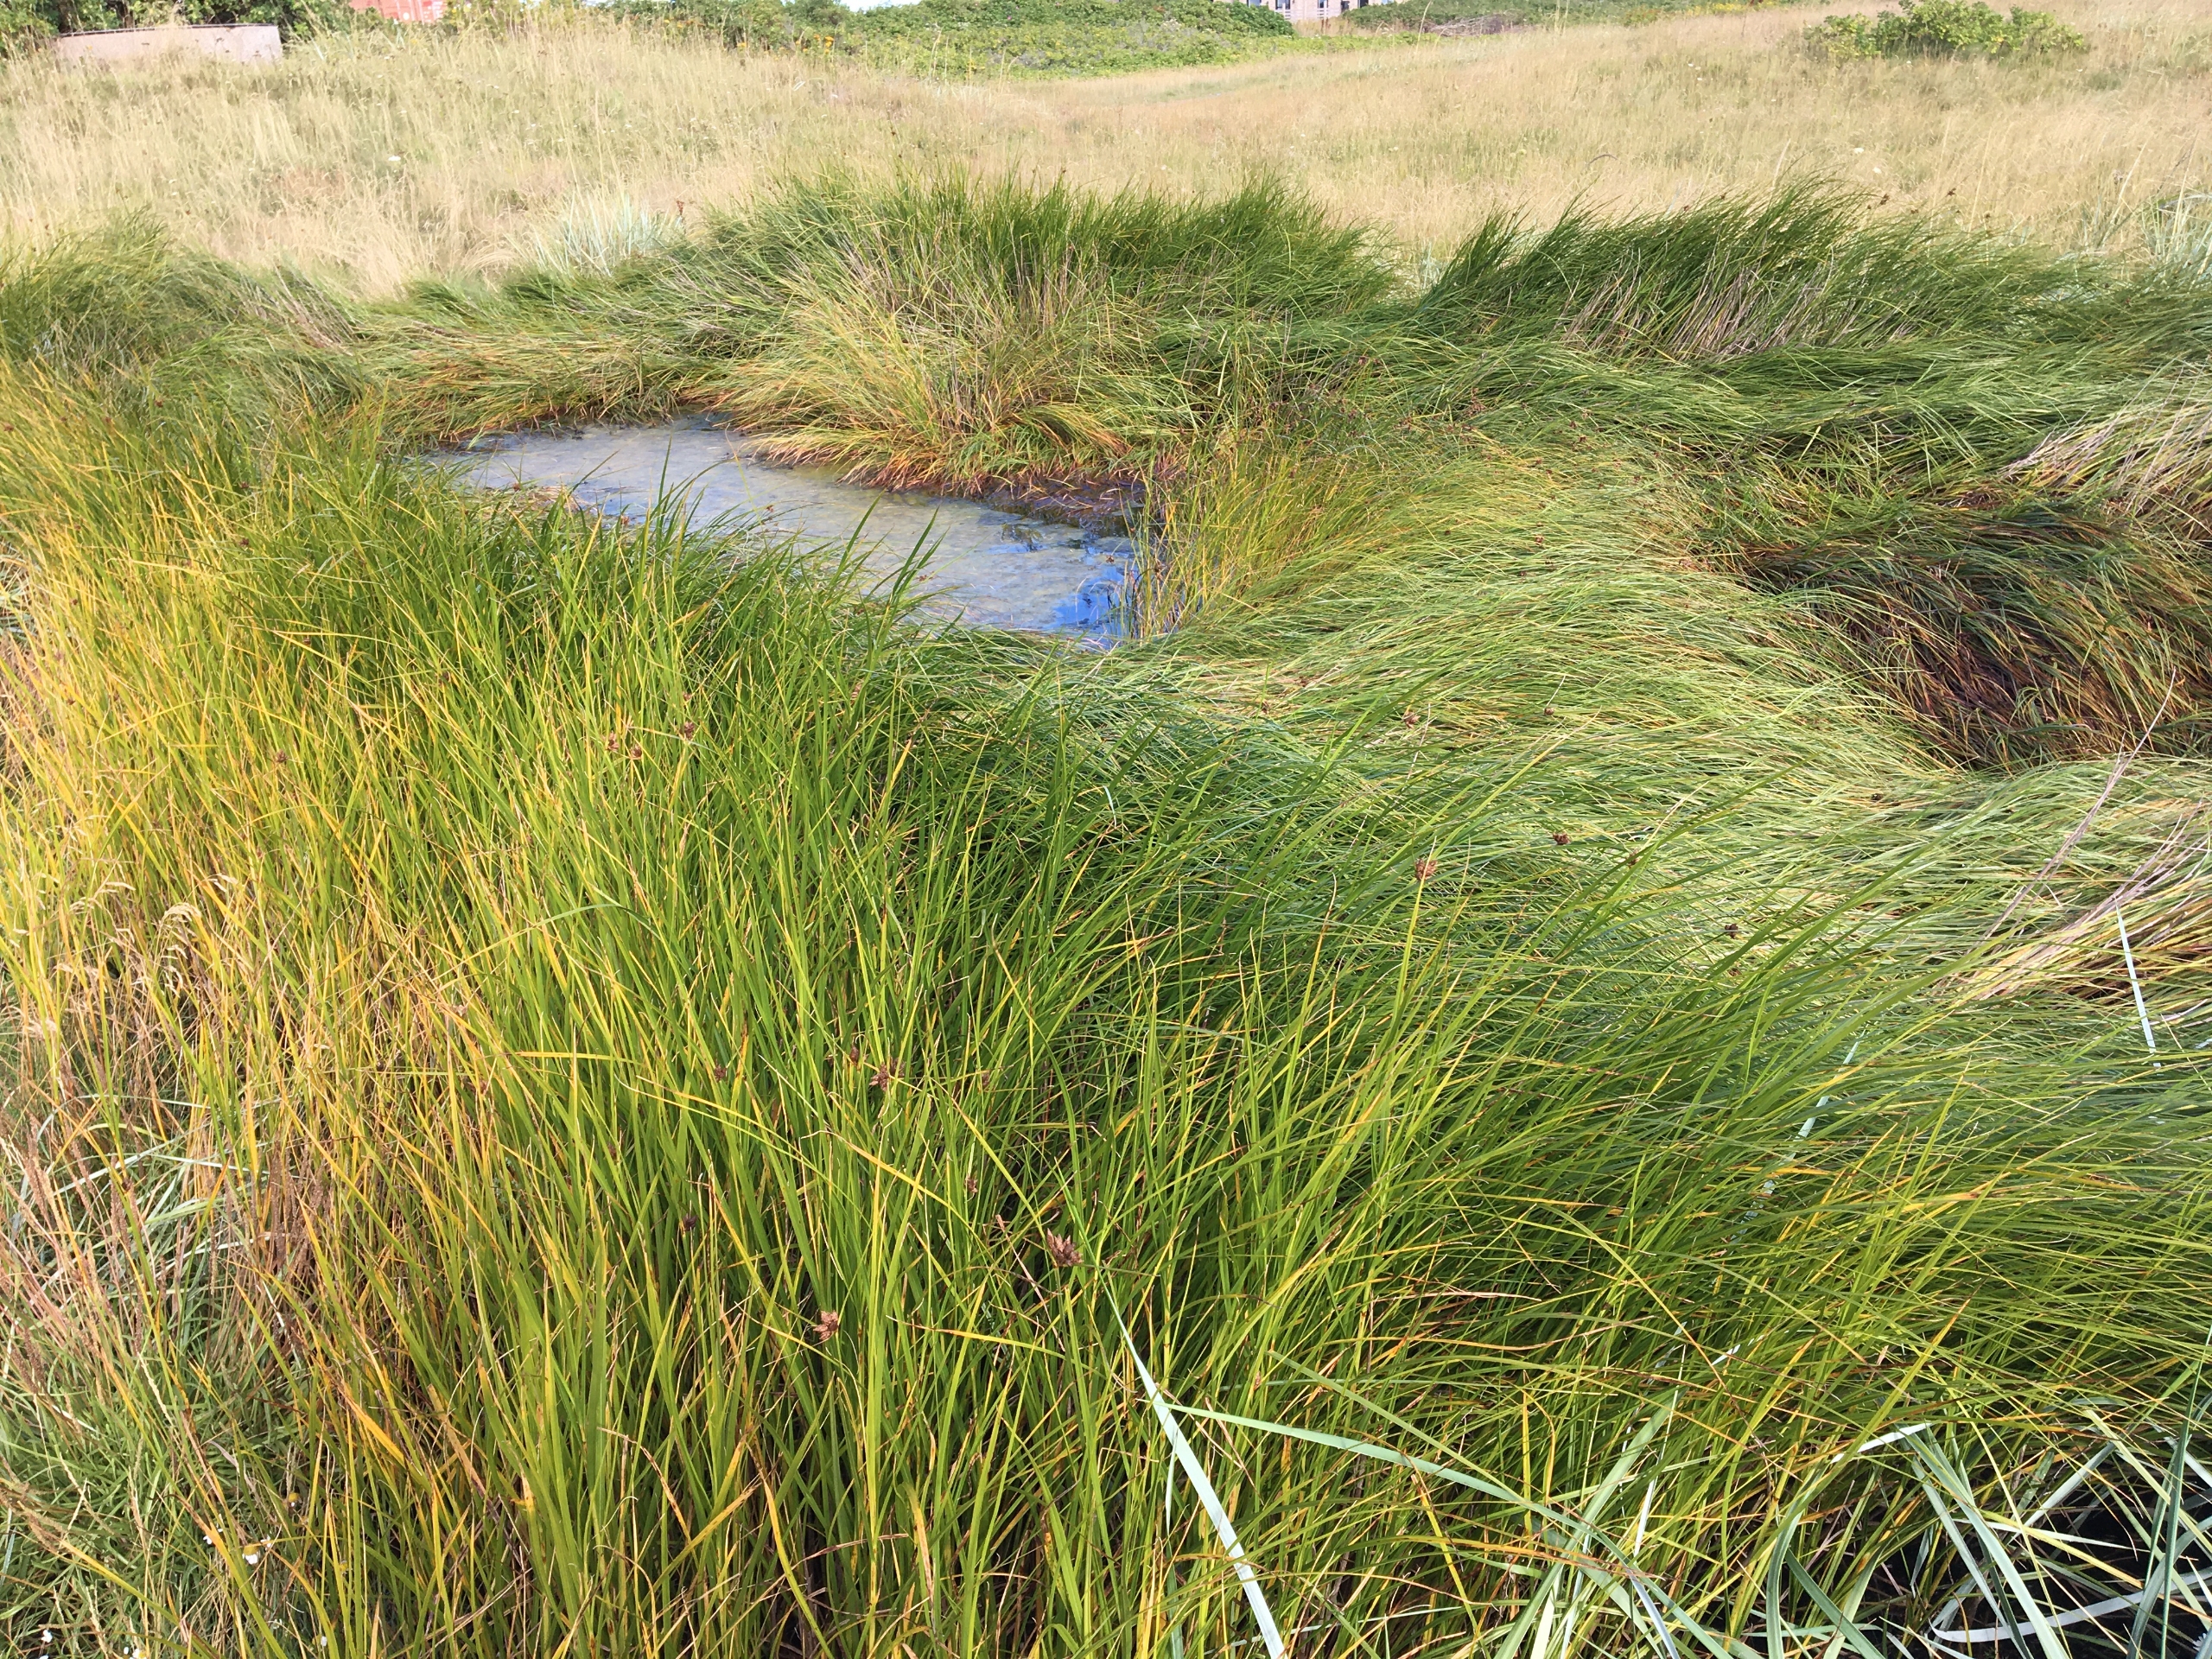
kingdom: Plantae
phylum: Tracheophyta
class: Liliopsida
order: Poales
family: Cyperaceae
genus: Bolboschoenus
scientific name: Bolboschoenus maritimus
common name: Strand-kogleaks
